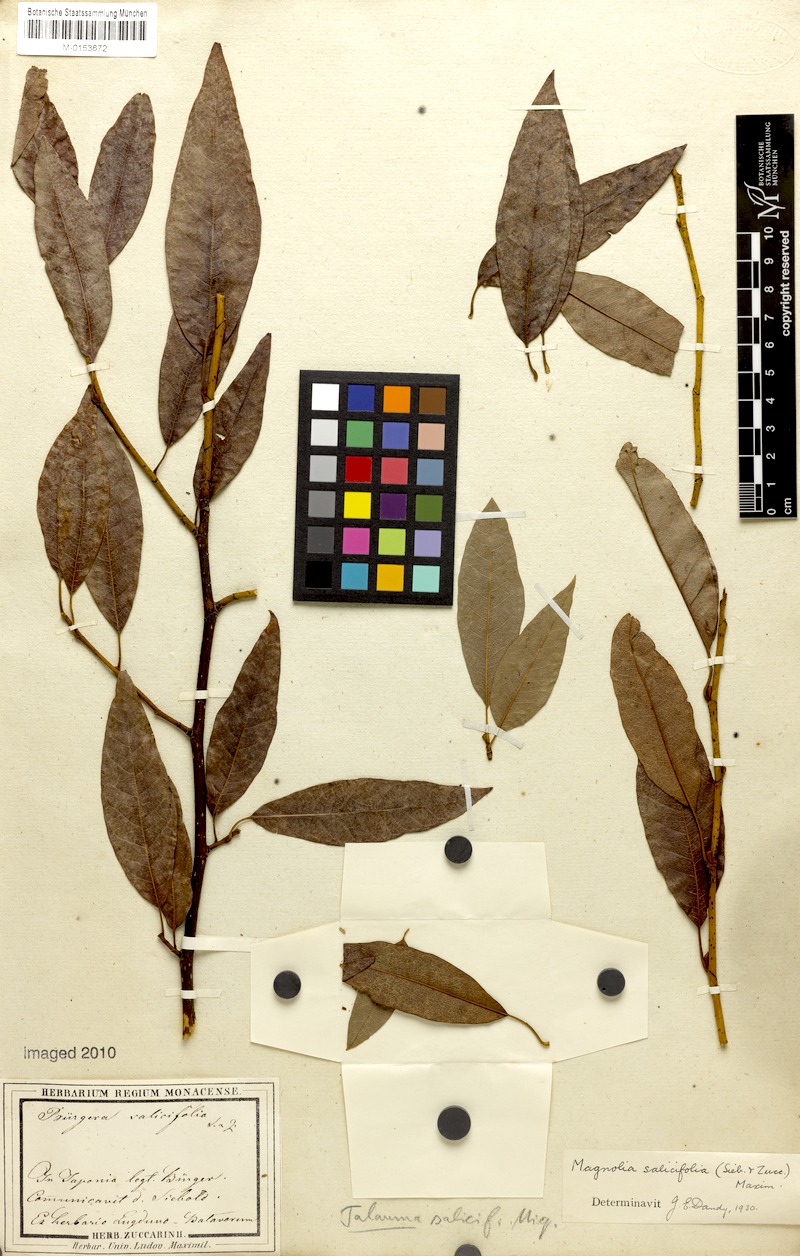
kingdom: Plantae
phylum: Tracheophyta
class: Magnoliopsida
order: Magnoliales
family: Magnoliaceae
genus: Magnolia
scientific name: Magnolia salicifolia
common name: Anise magnolia
